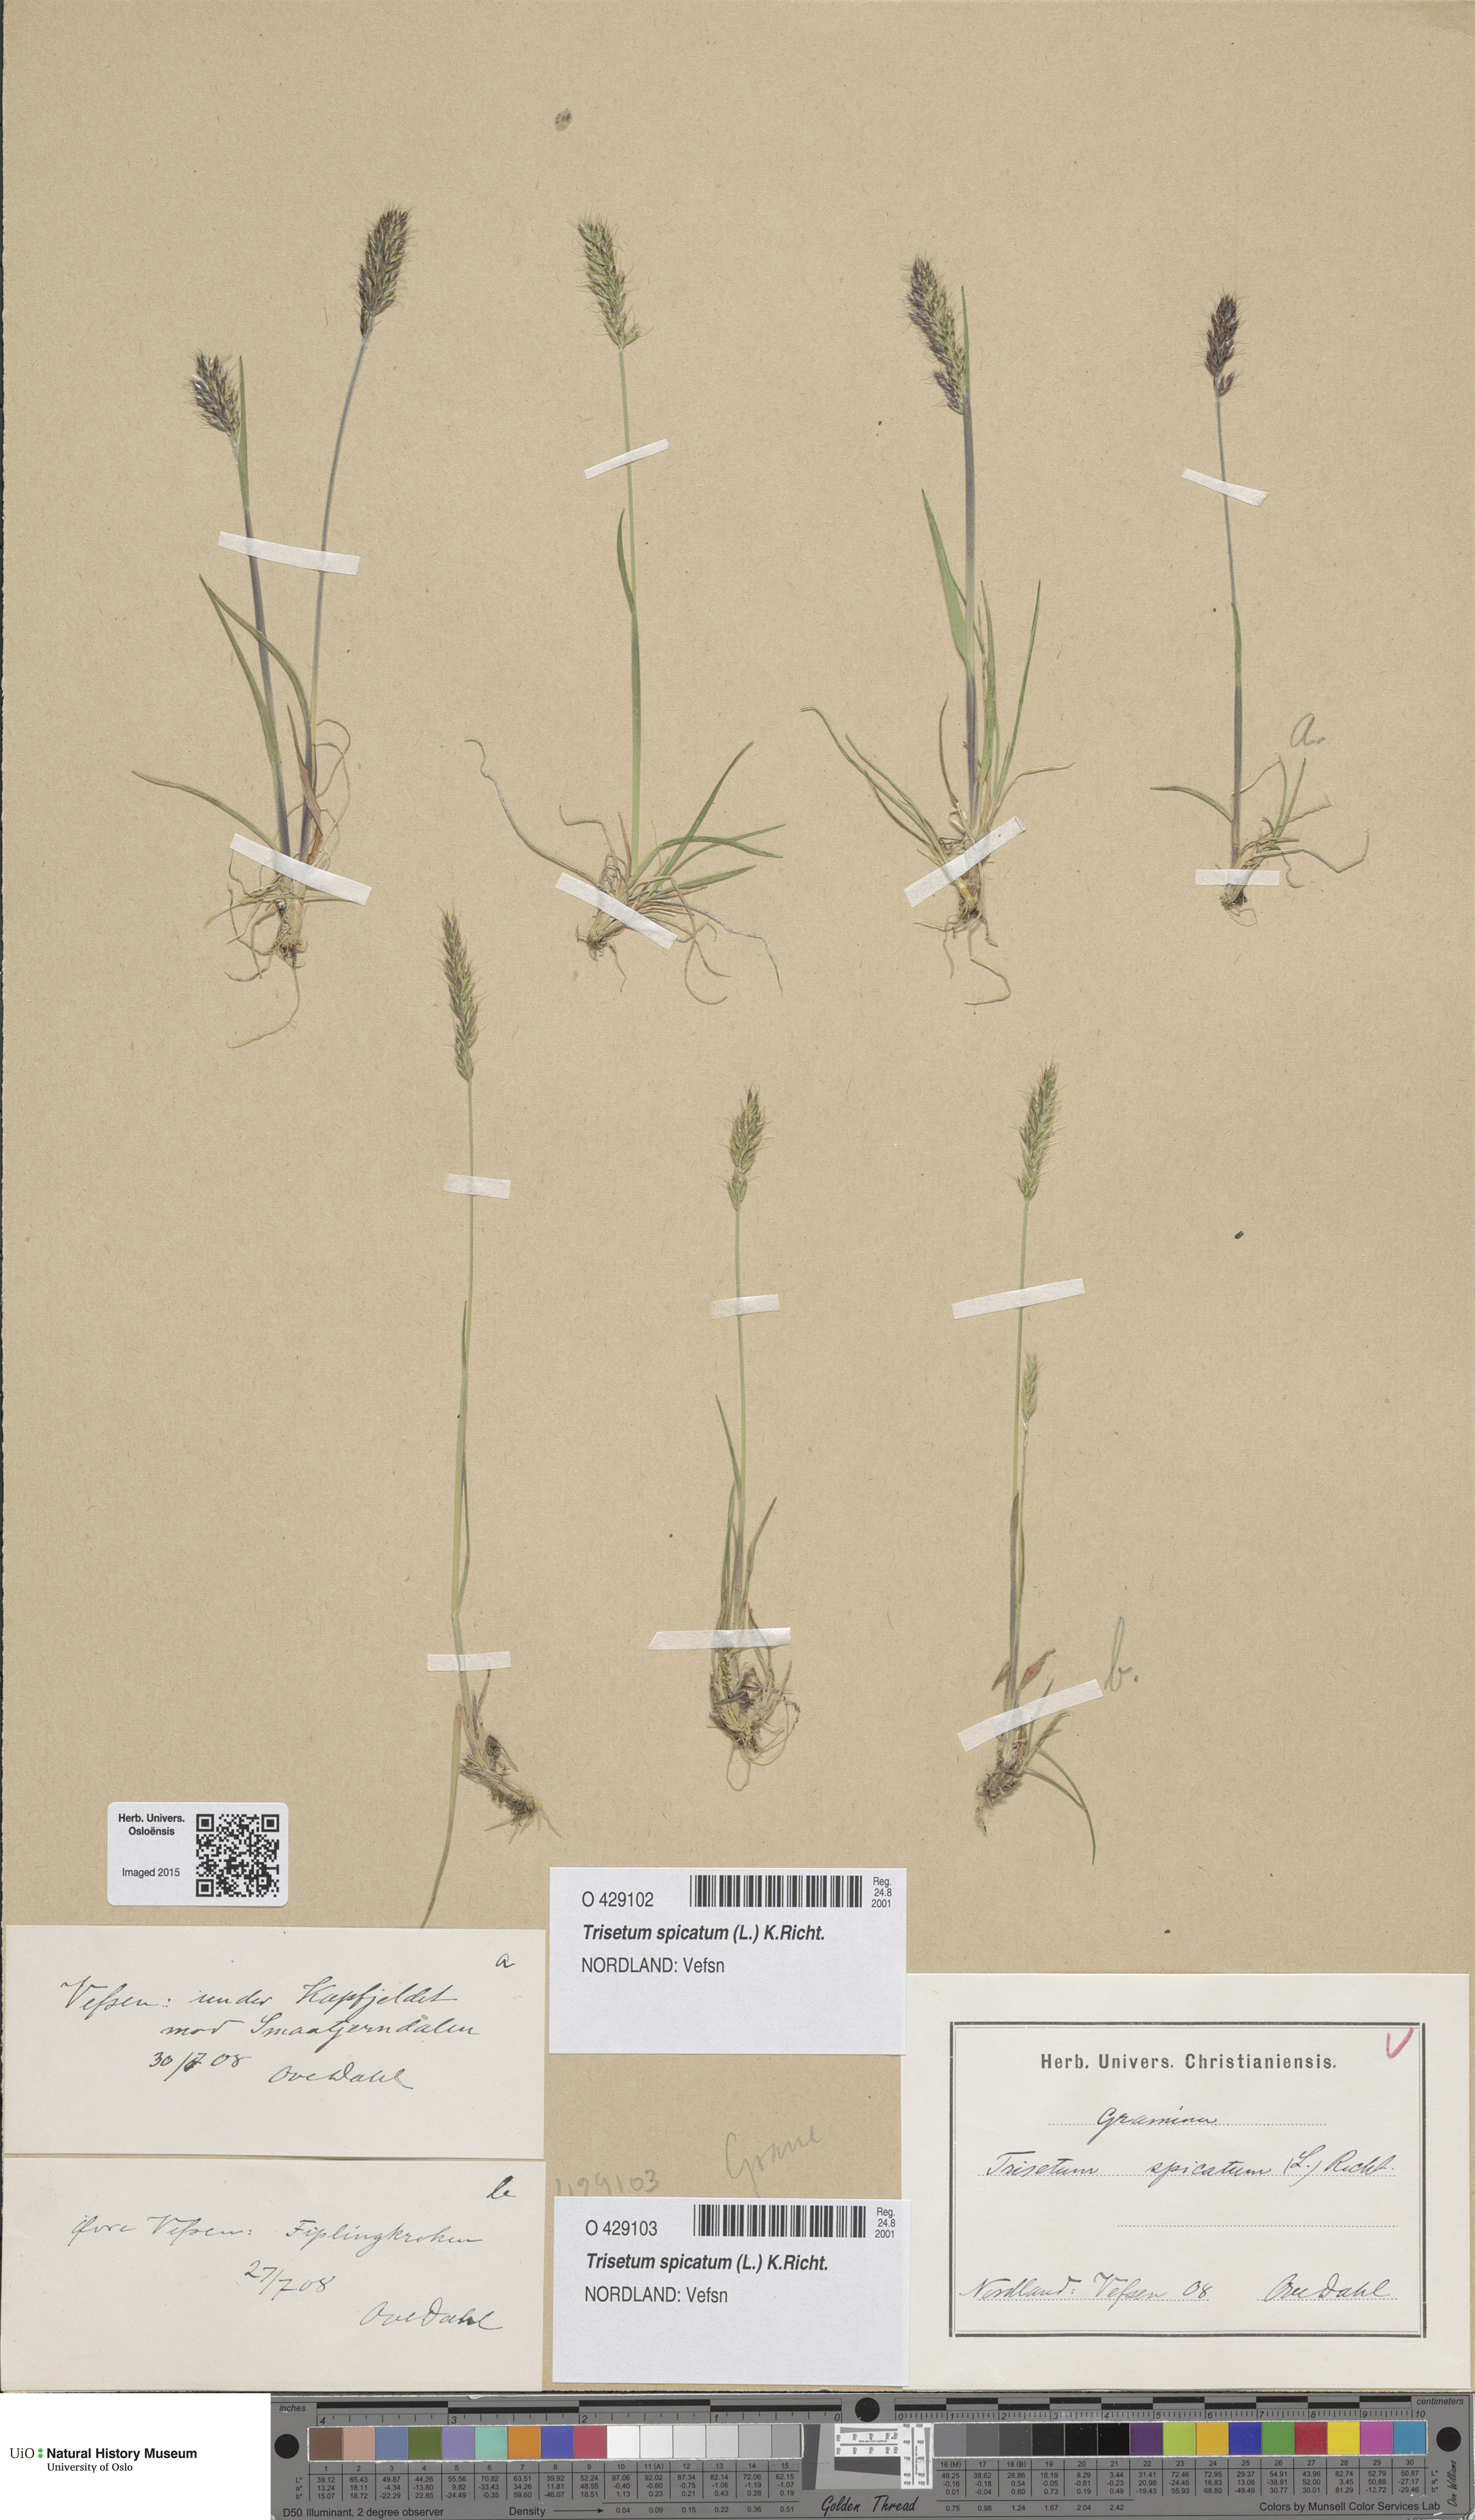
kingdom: Plantae
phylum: Tracheophyta
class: Liliopsida
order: Poales
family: Poaceae
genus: Koeleria
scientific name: Koeleria spicata
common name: Mountain trisetum
